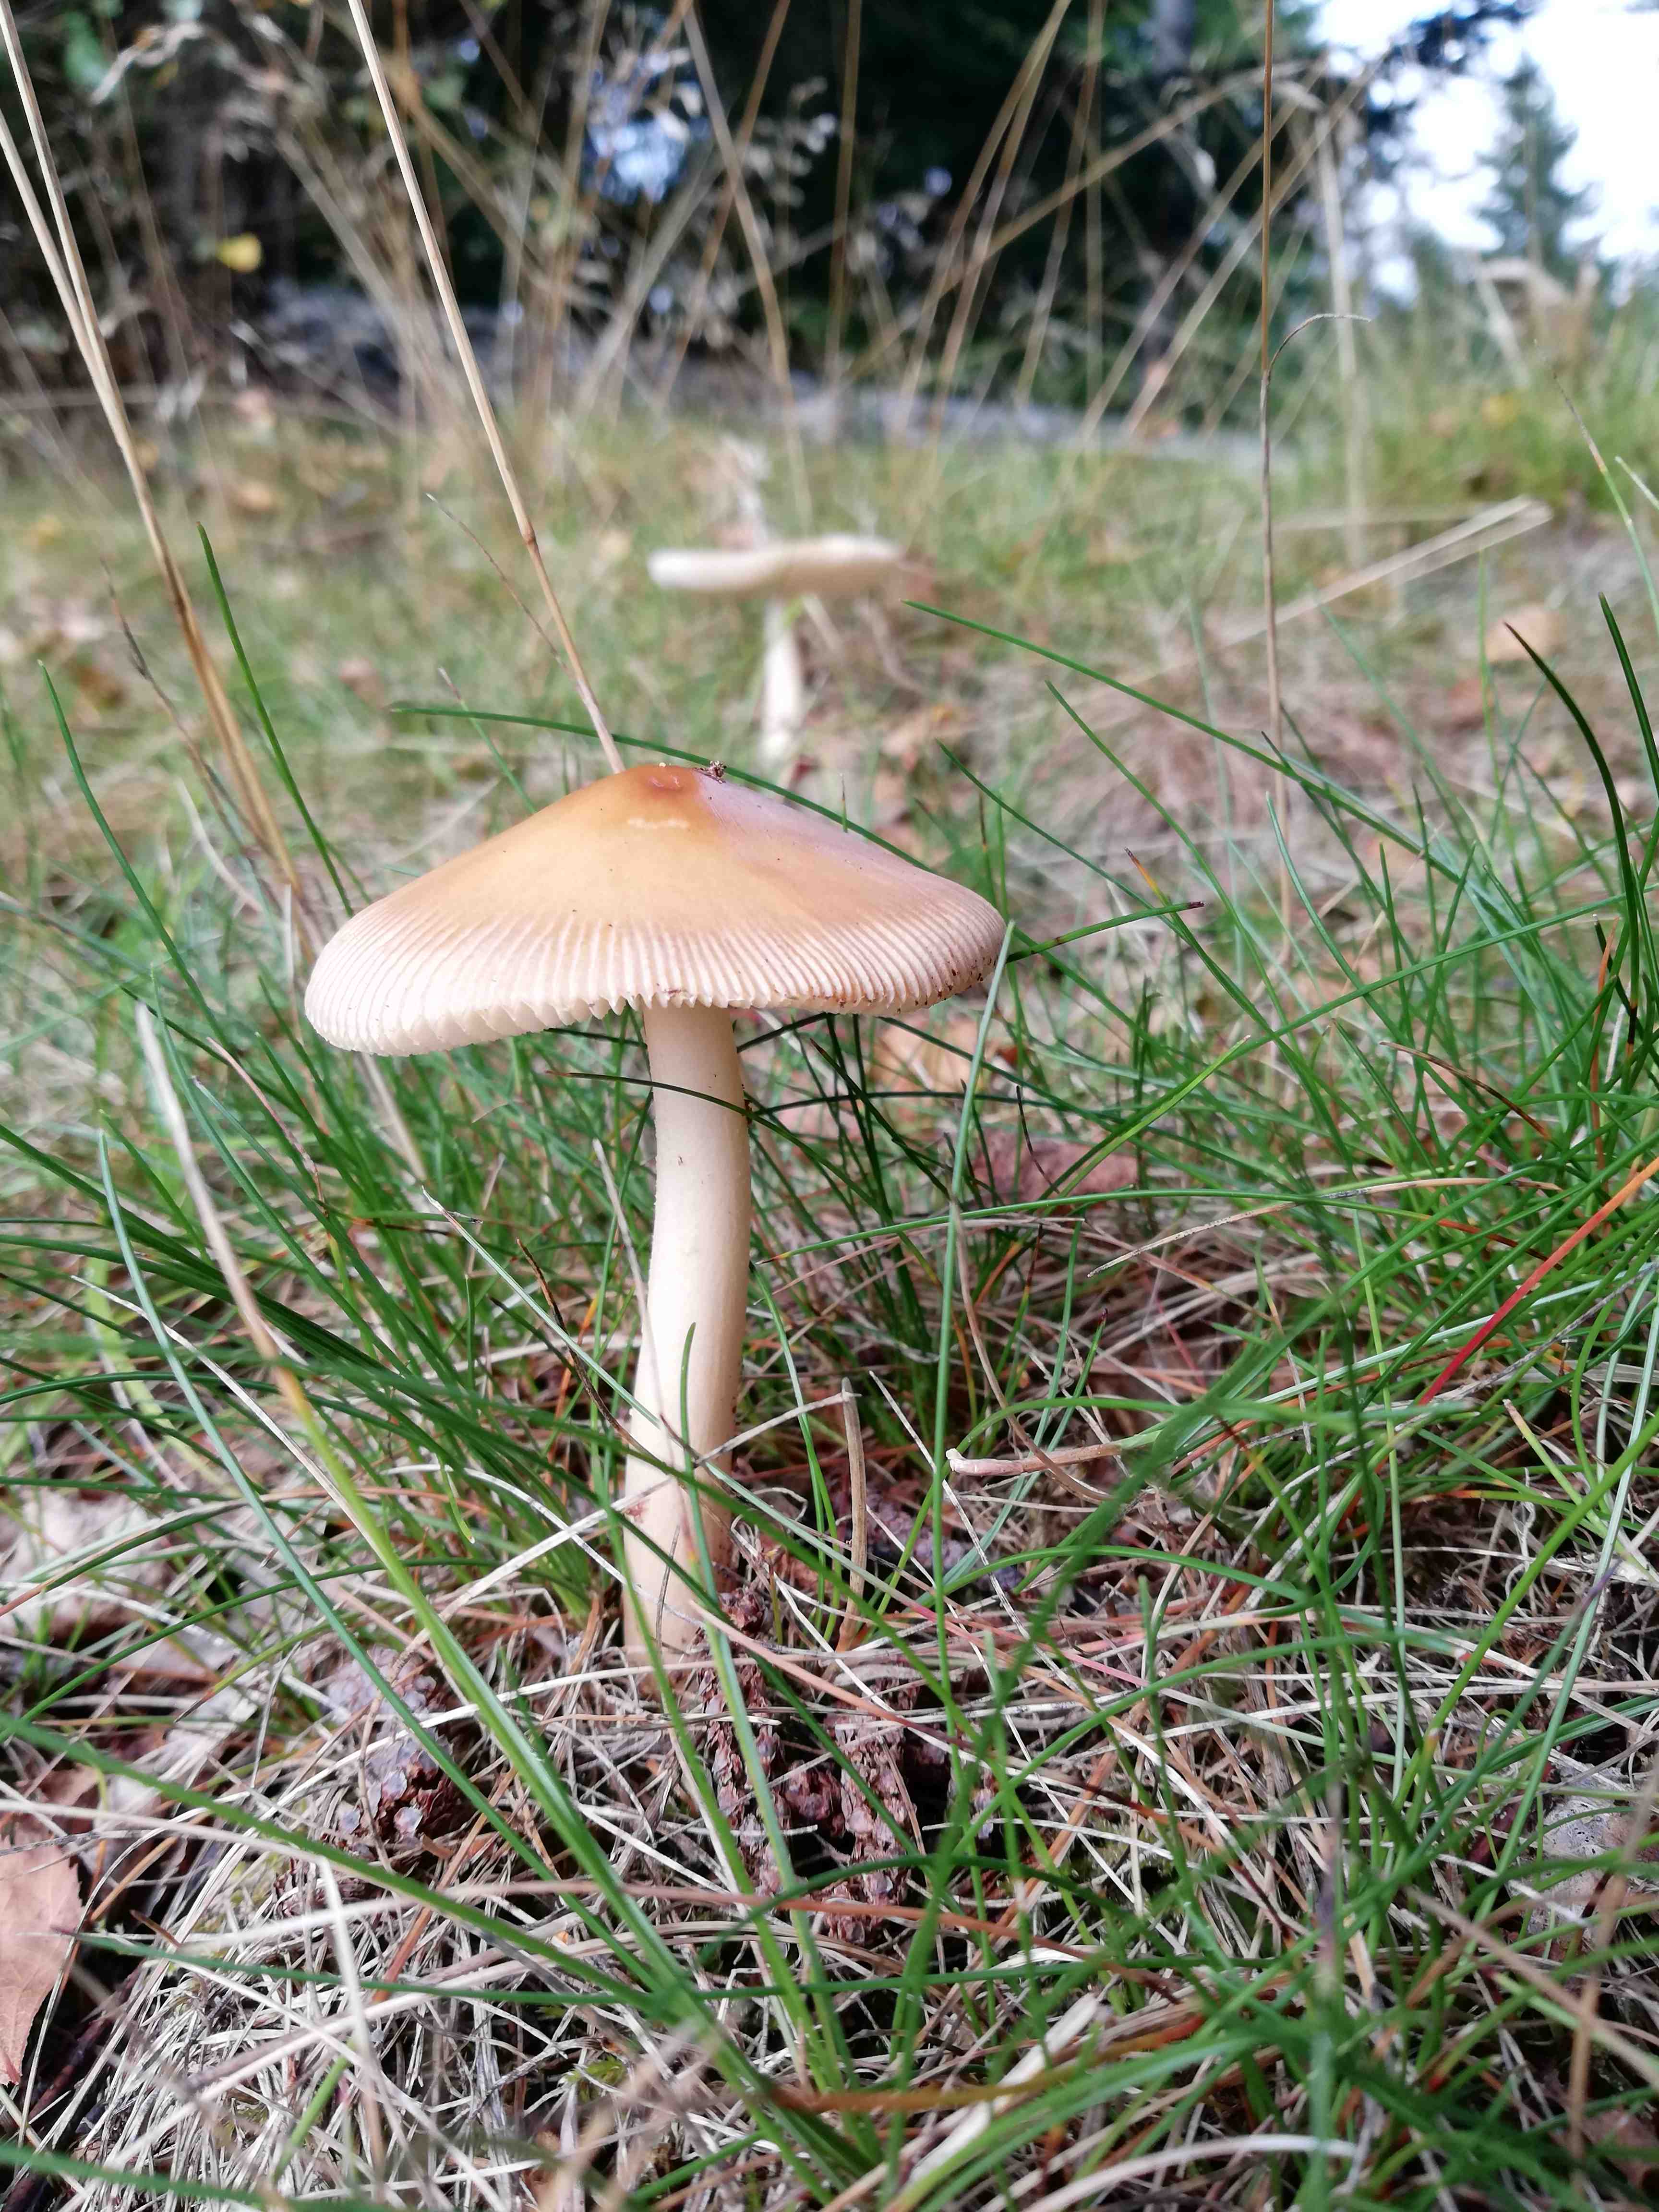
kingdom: Fungi
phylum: Basidiomycota
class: Agaricomycetes
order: Agaricales
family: Amanitaceae
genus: Amanita
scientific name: Amanita fulva
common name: brun kam-fluesvamp
